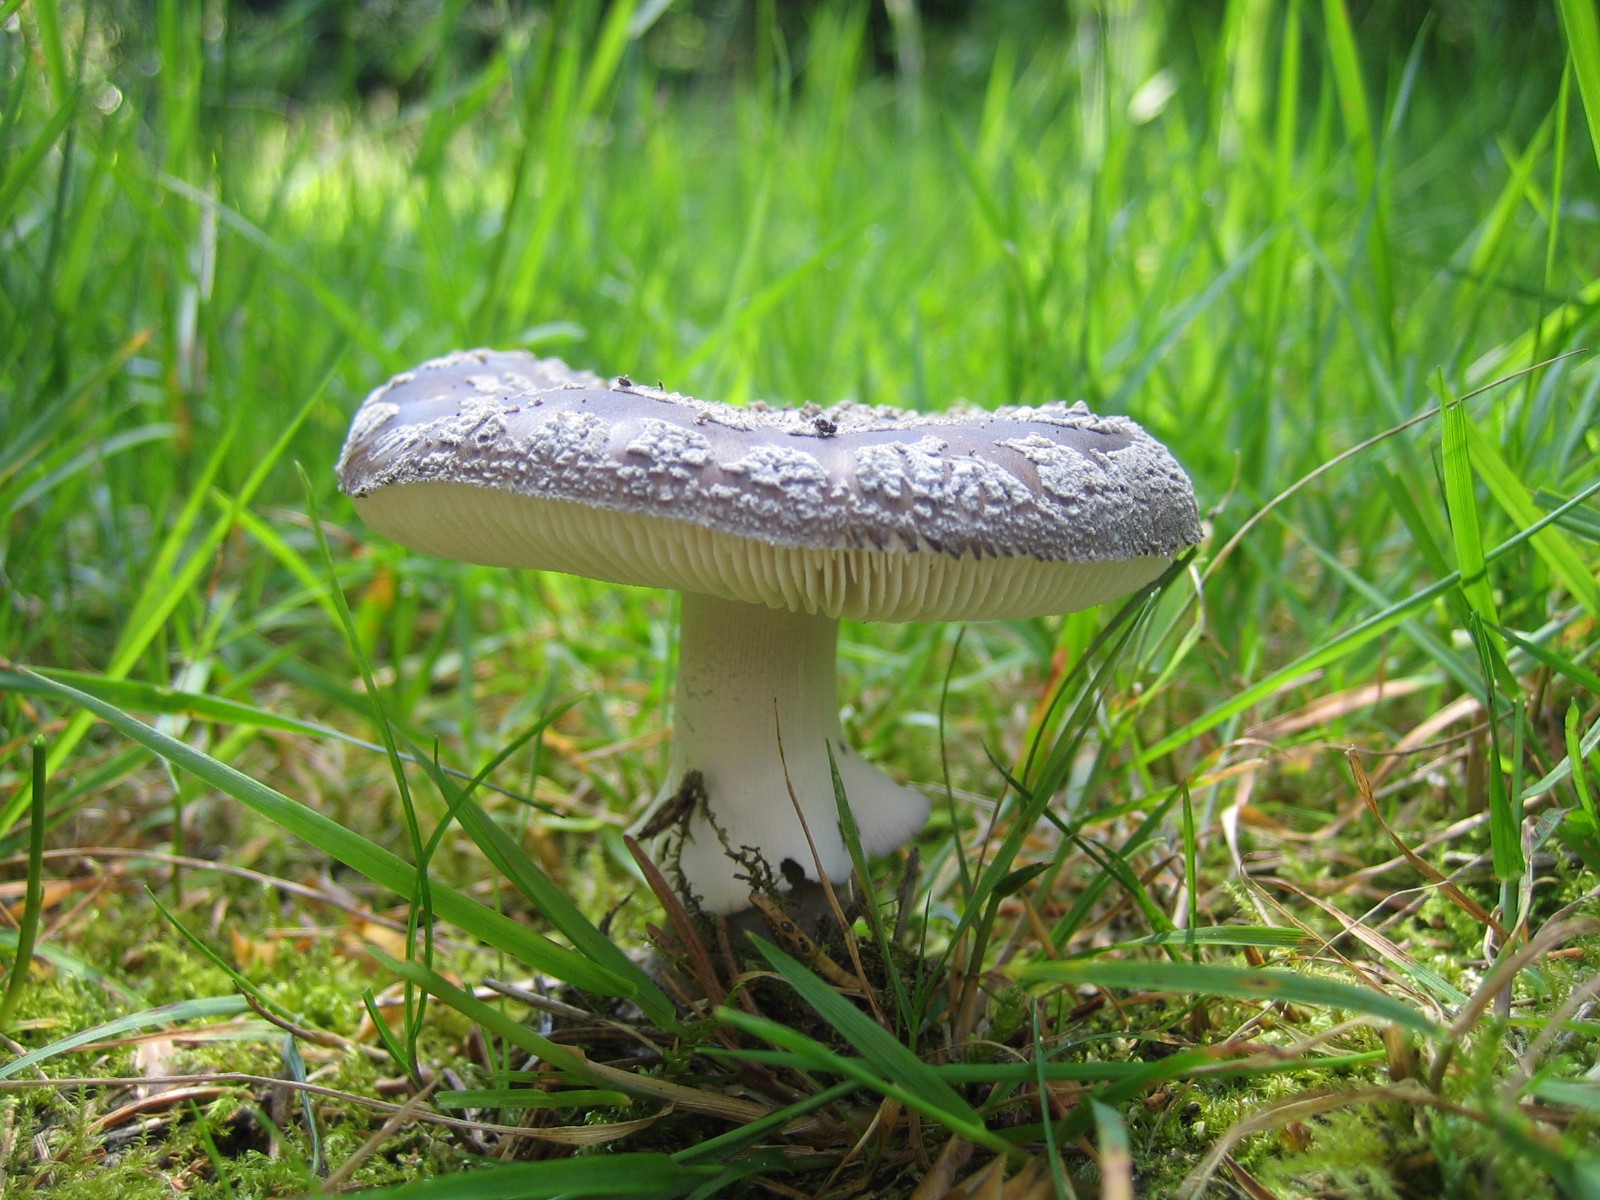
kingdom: Fungi
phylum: Basidiomycota
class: Agaricomycetes
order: Agaricales
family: Amanitaceae
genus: Amanita
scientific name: Amanita
